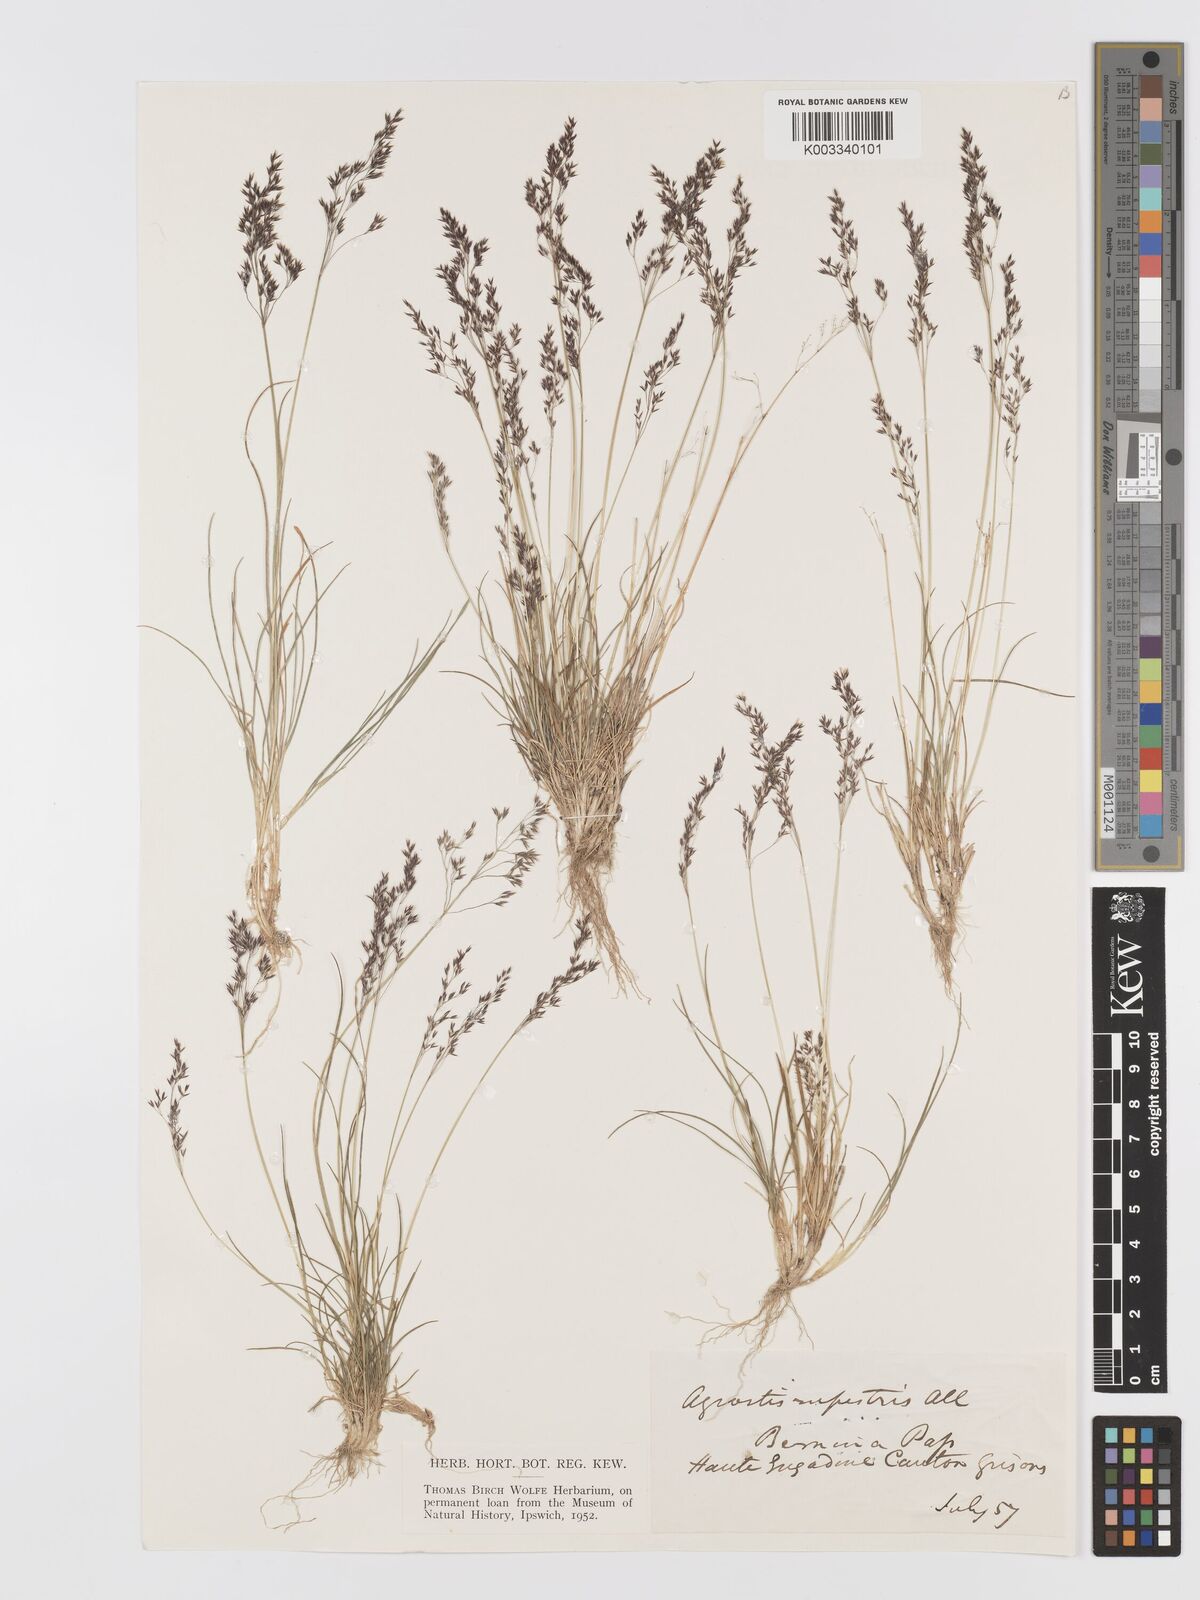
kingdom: Plantae
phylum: Tracheophyta
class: Liliopsida
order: Poales
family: Poaceae
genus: Agrostis
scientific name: Agrostis rupestris
